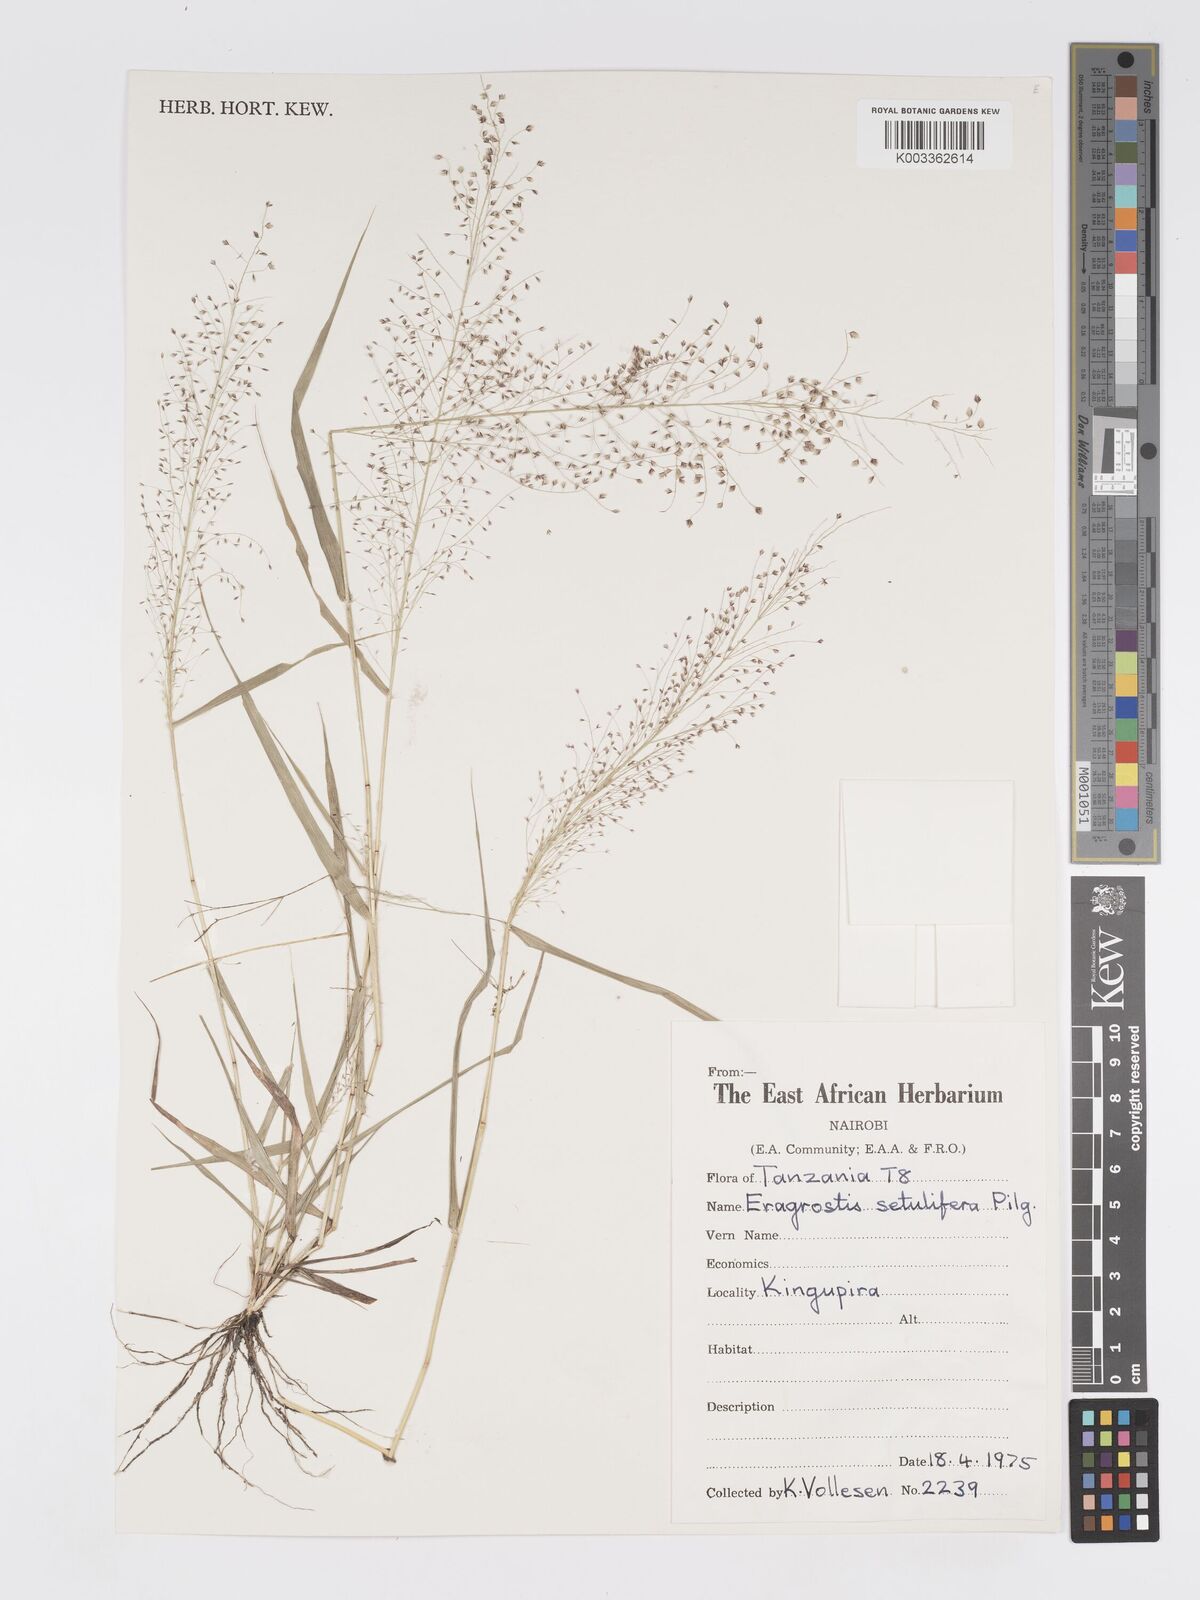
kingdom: Plantae
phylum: Tracheophyta
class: Liliopsida
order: Poales
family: Poaceae
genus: Eragrostis
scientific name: Eragrostis setulifera
